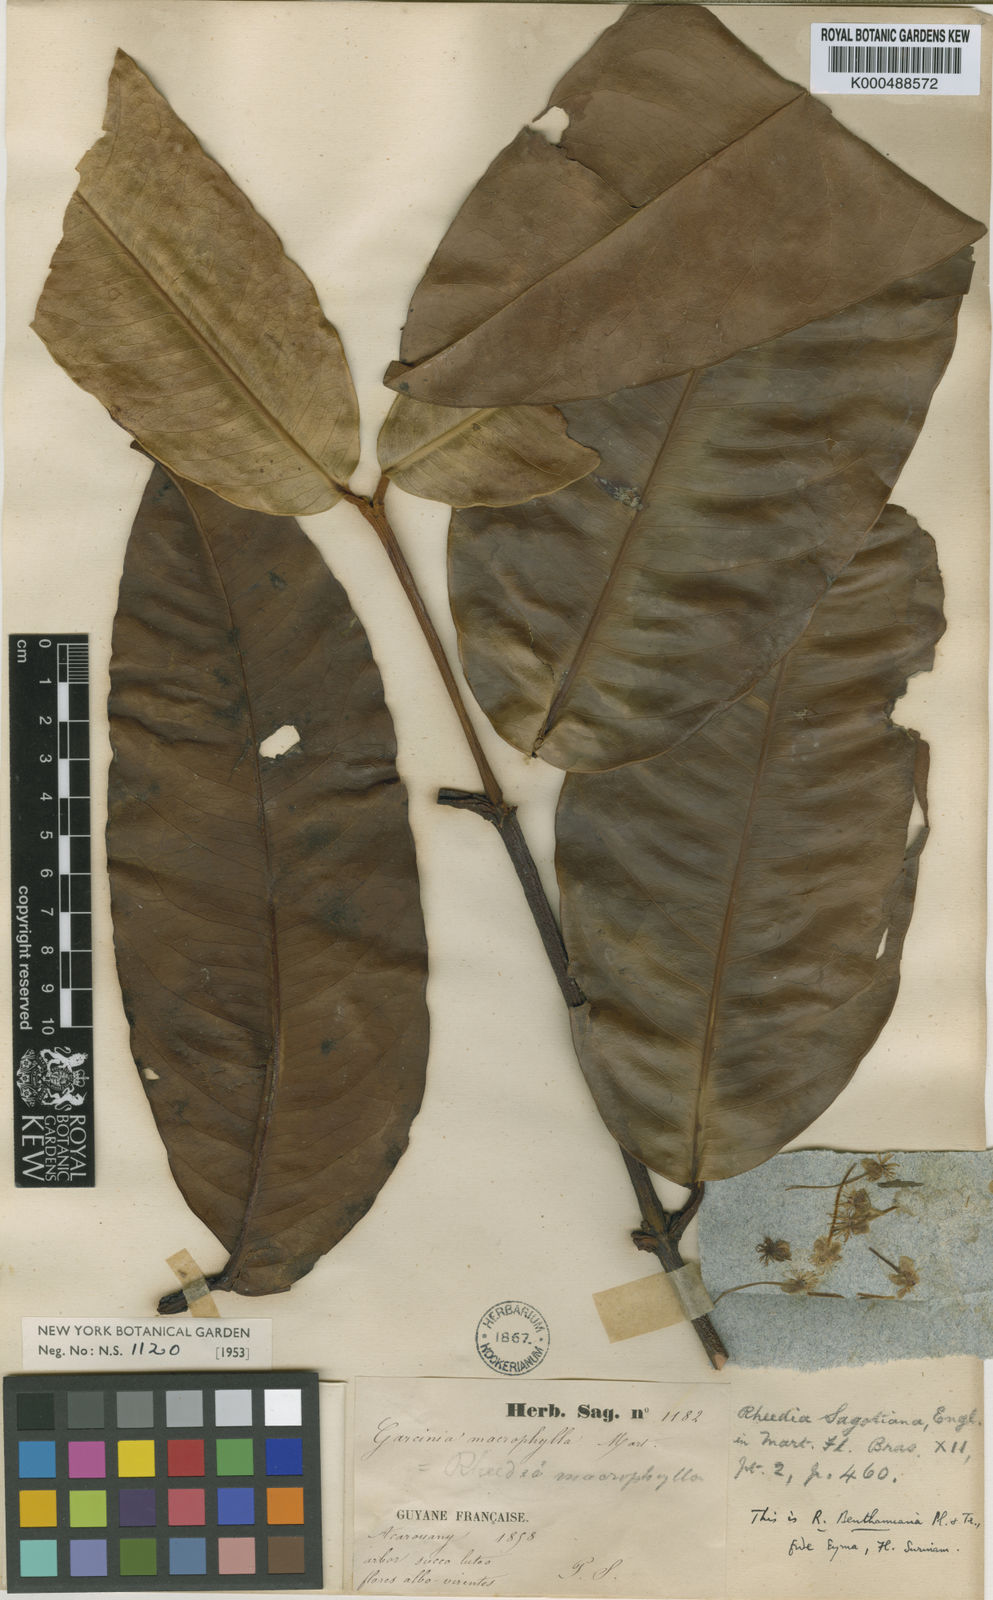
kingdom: Plantae
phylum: Tracheophyta
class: Magnoliopsida
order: Malpighiales
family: Clusiaceae
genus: Garcinia
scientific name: Garcinia
